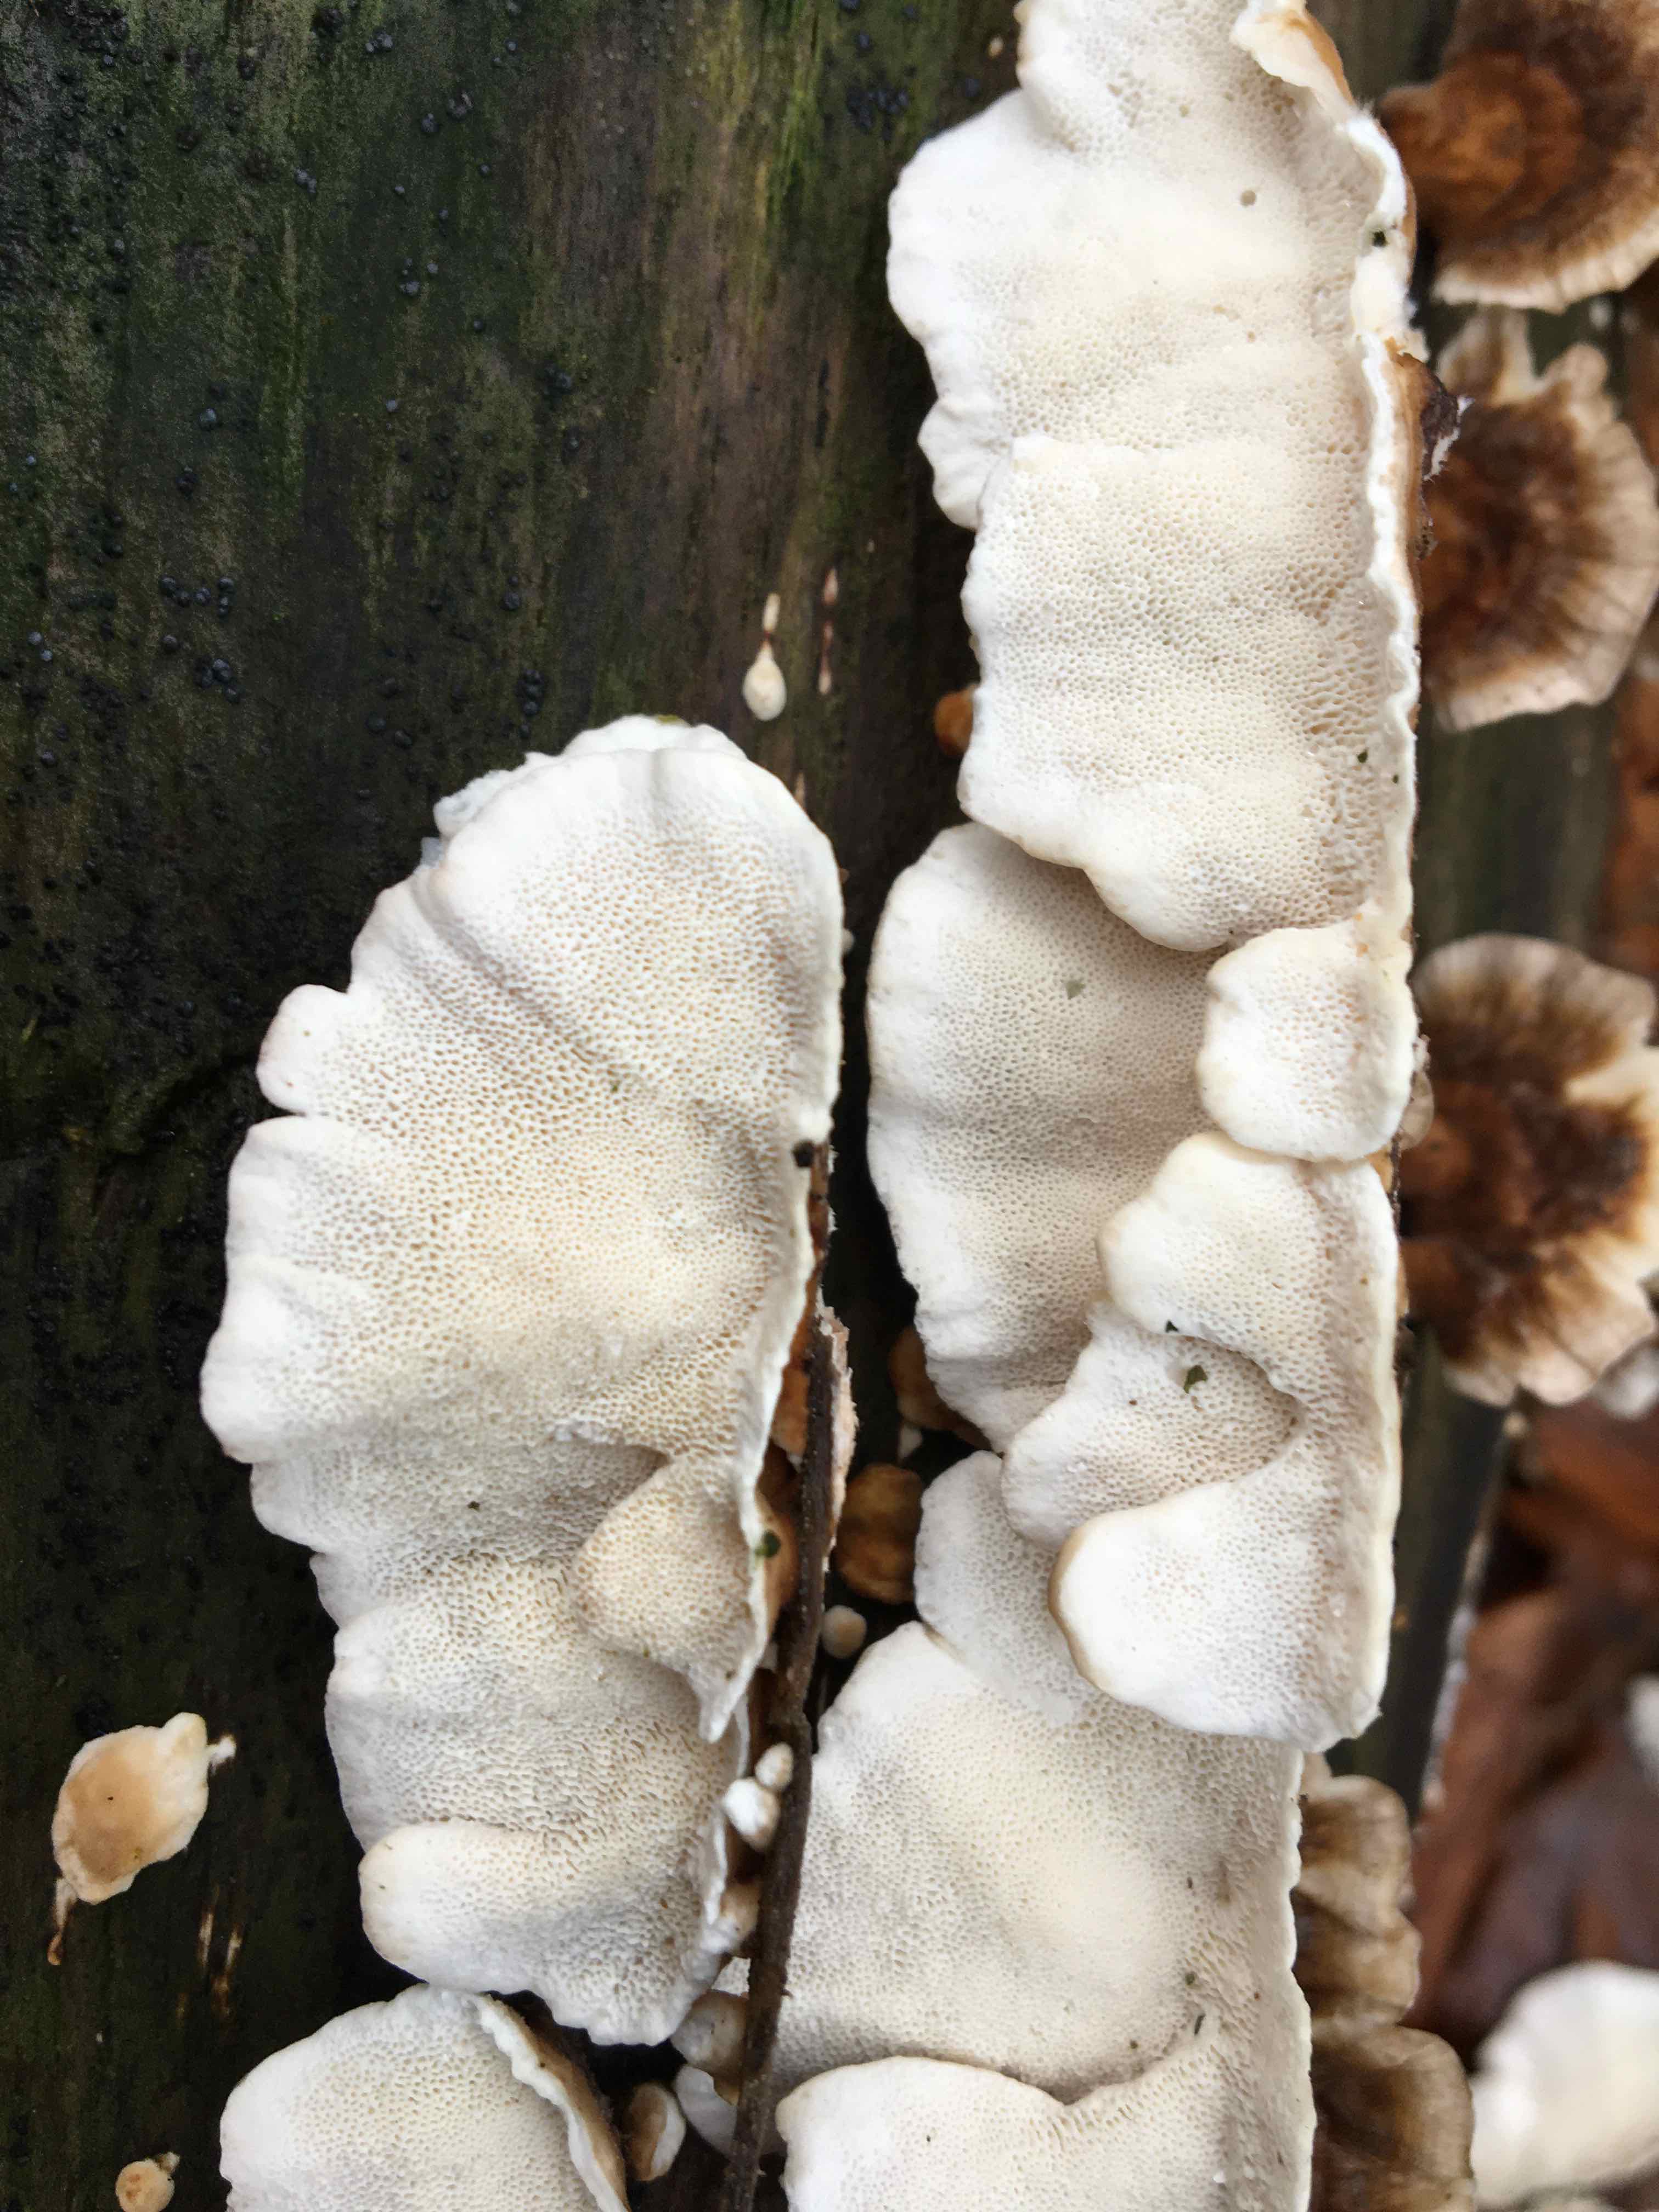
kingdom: Fungi
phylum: Basidiomycota
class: Agaricomycetes
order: Polyporales
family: Polyporaceae
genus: Trametes
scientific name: Trametes versicolor
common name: broget læderporesvamp
